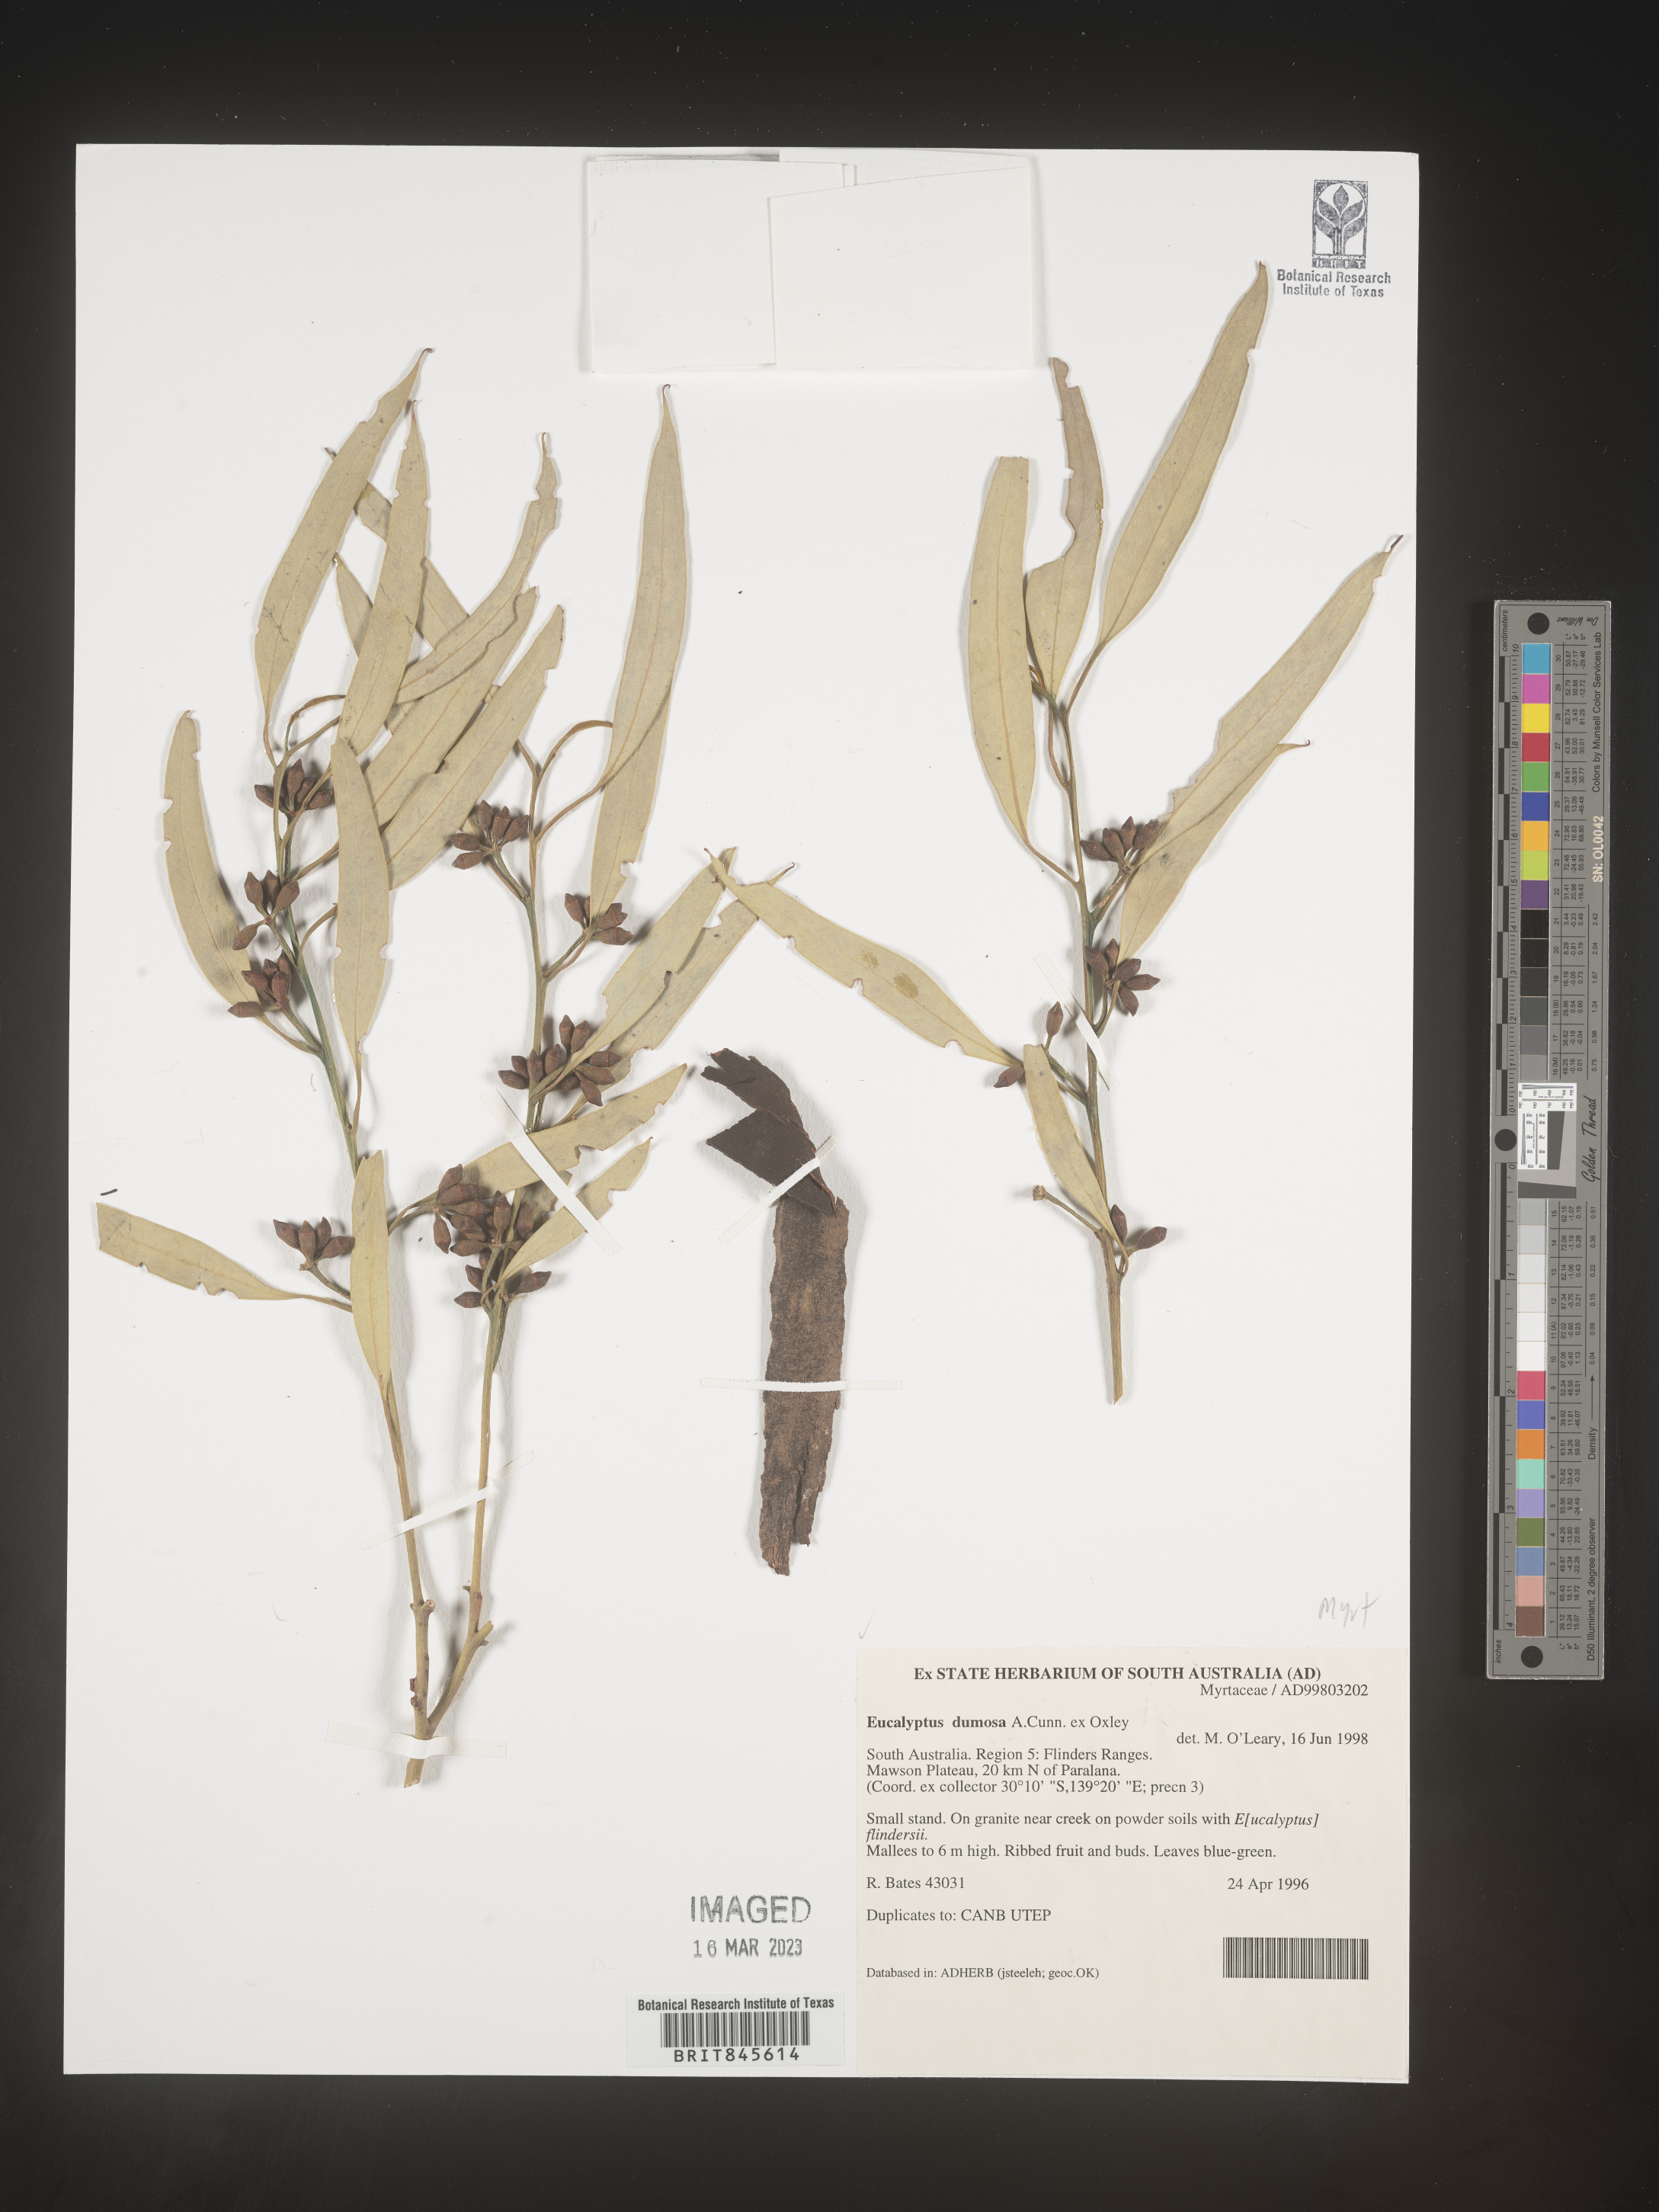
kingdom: Plantae
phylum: Tracheophyta
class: Magnoliopsida
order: Myrtales
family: Myrtaceae
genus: Eucalyptus
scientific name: Eucalyptus
